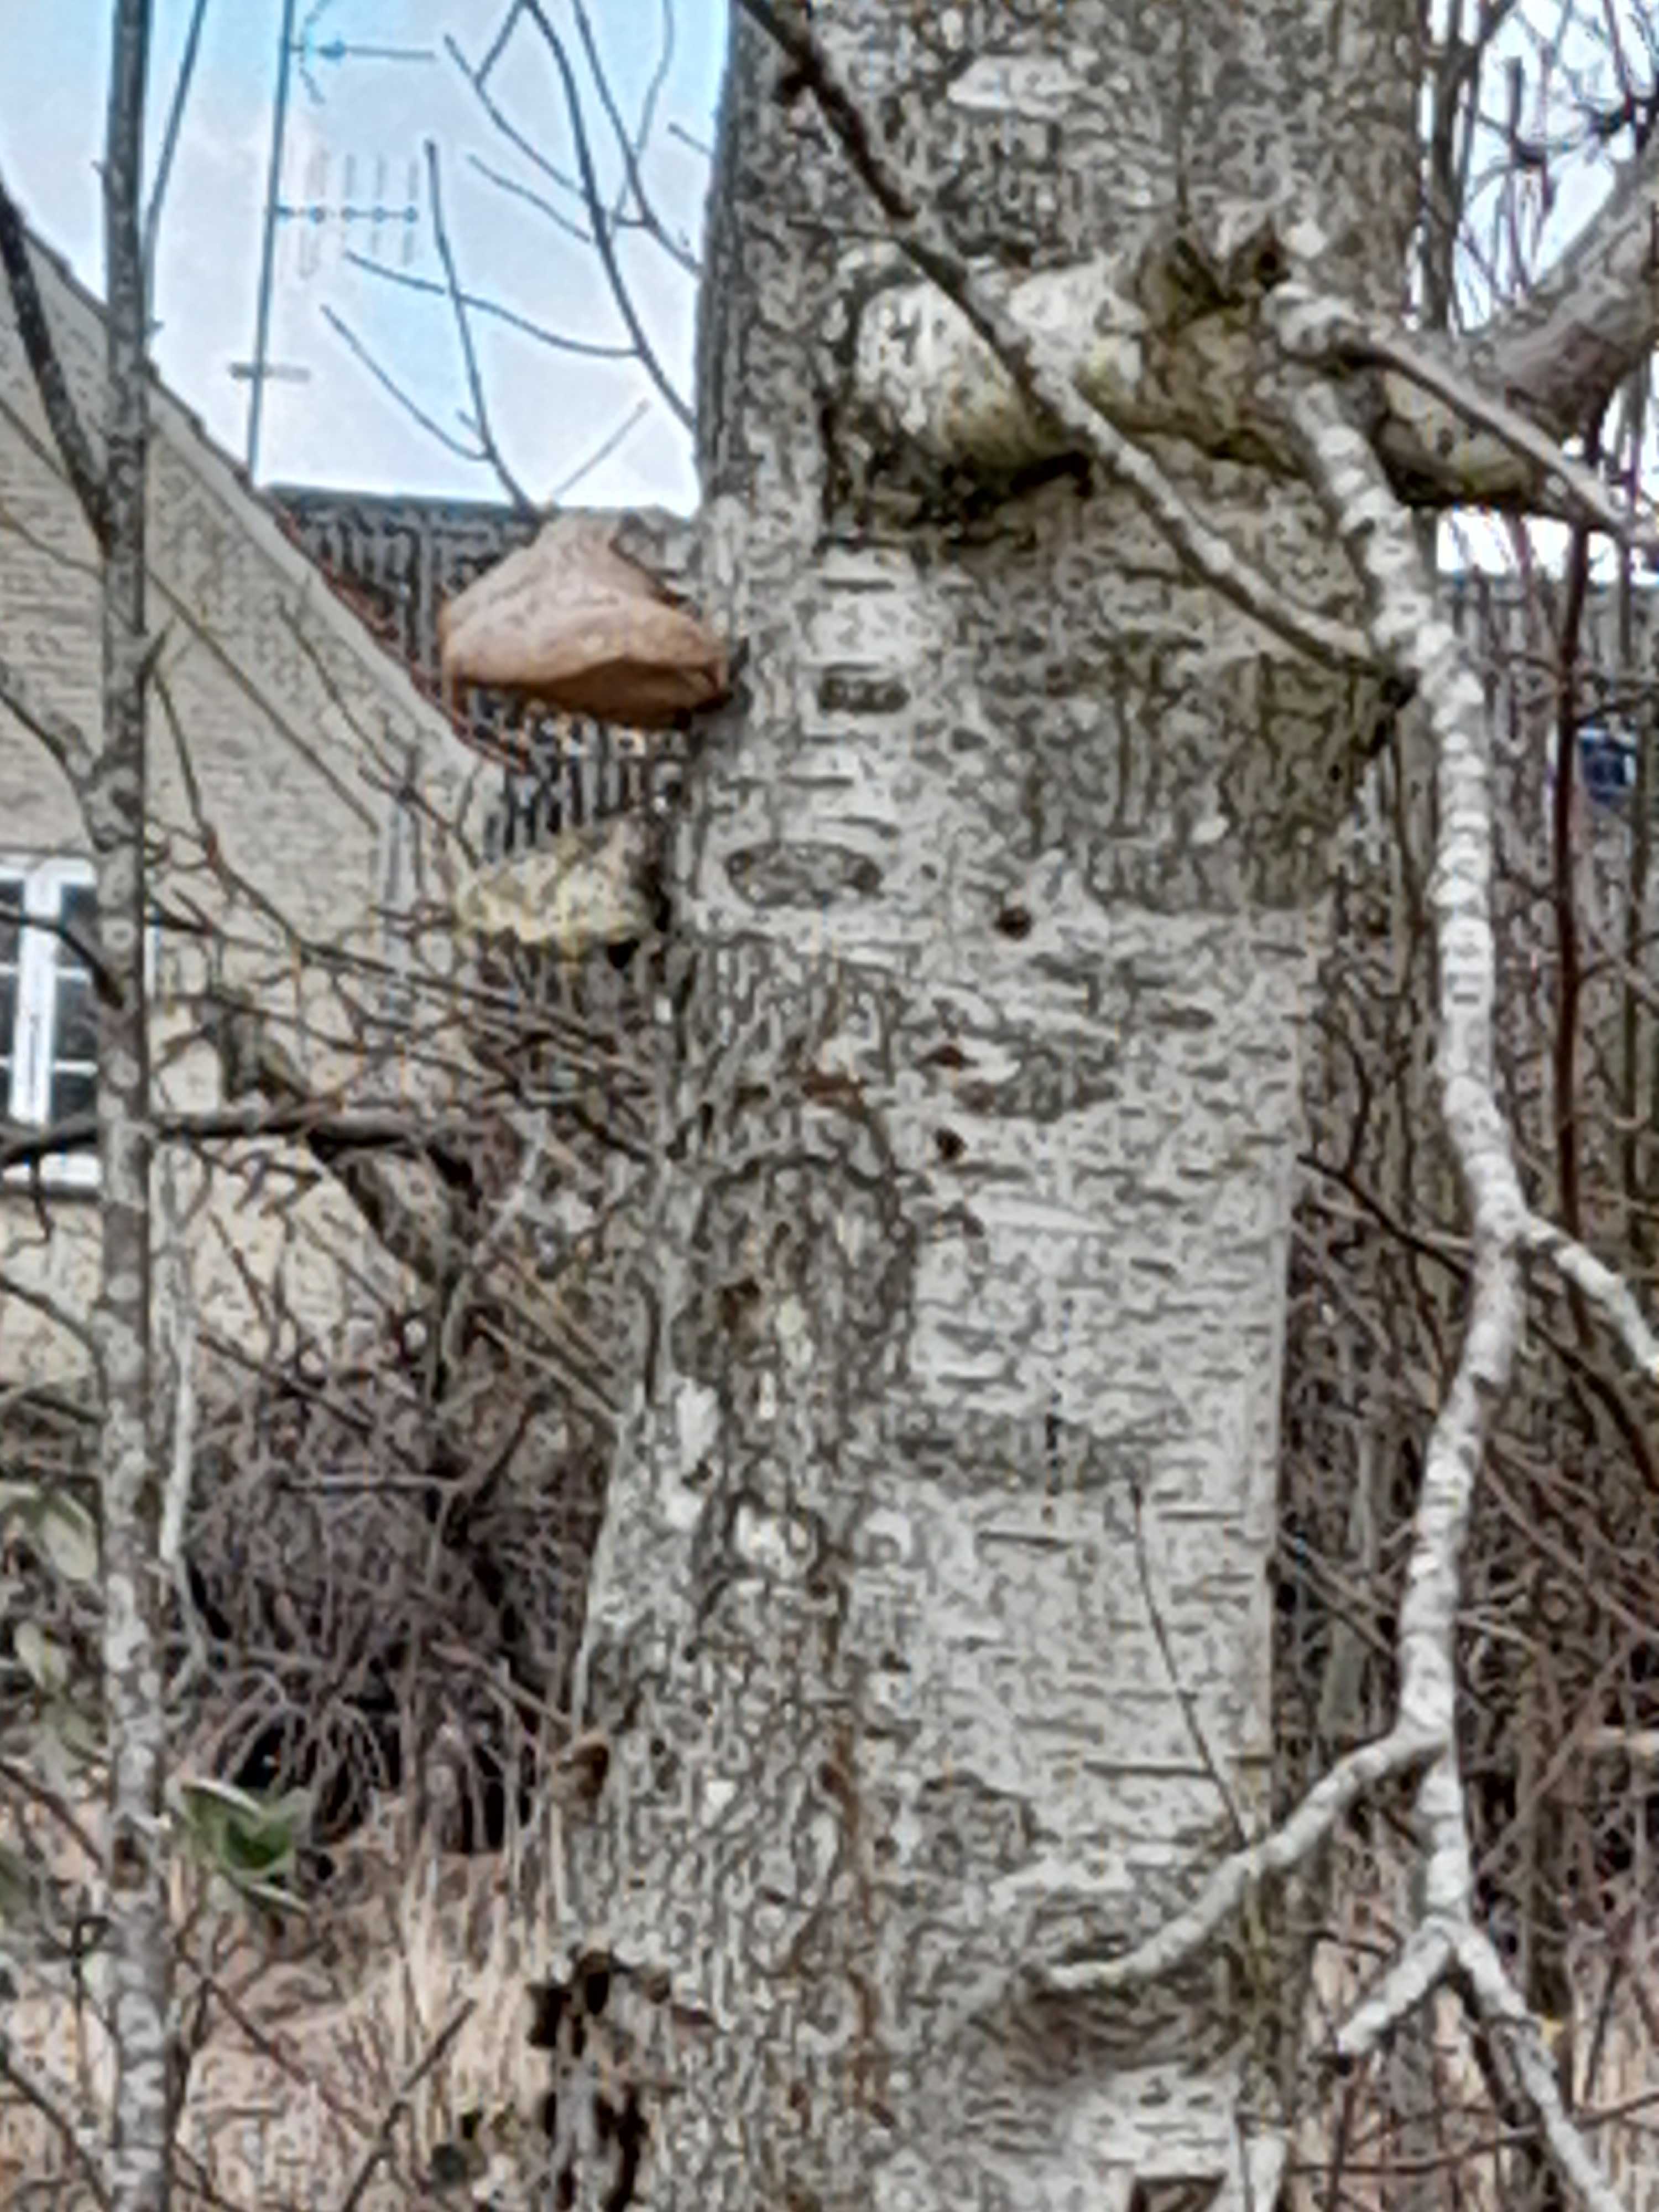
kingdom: Fungi
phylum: Basidiomycota
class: Agaricomycetes
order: Polyporales
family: Fomitopsidaceae
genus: Fomitopsis
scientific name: Fomitopsis betulina
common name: birkeporesvamp
